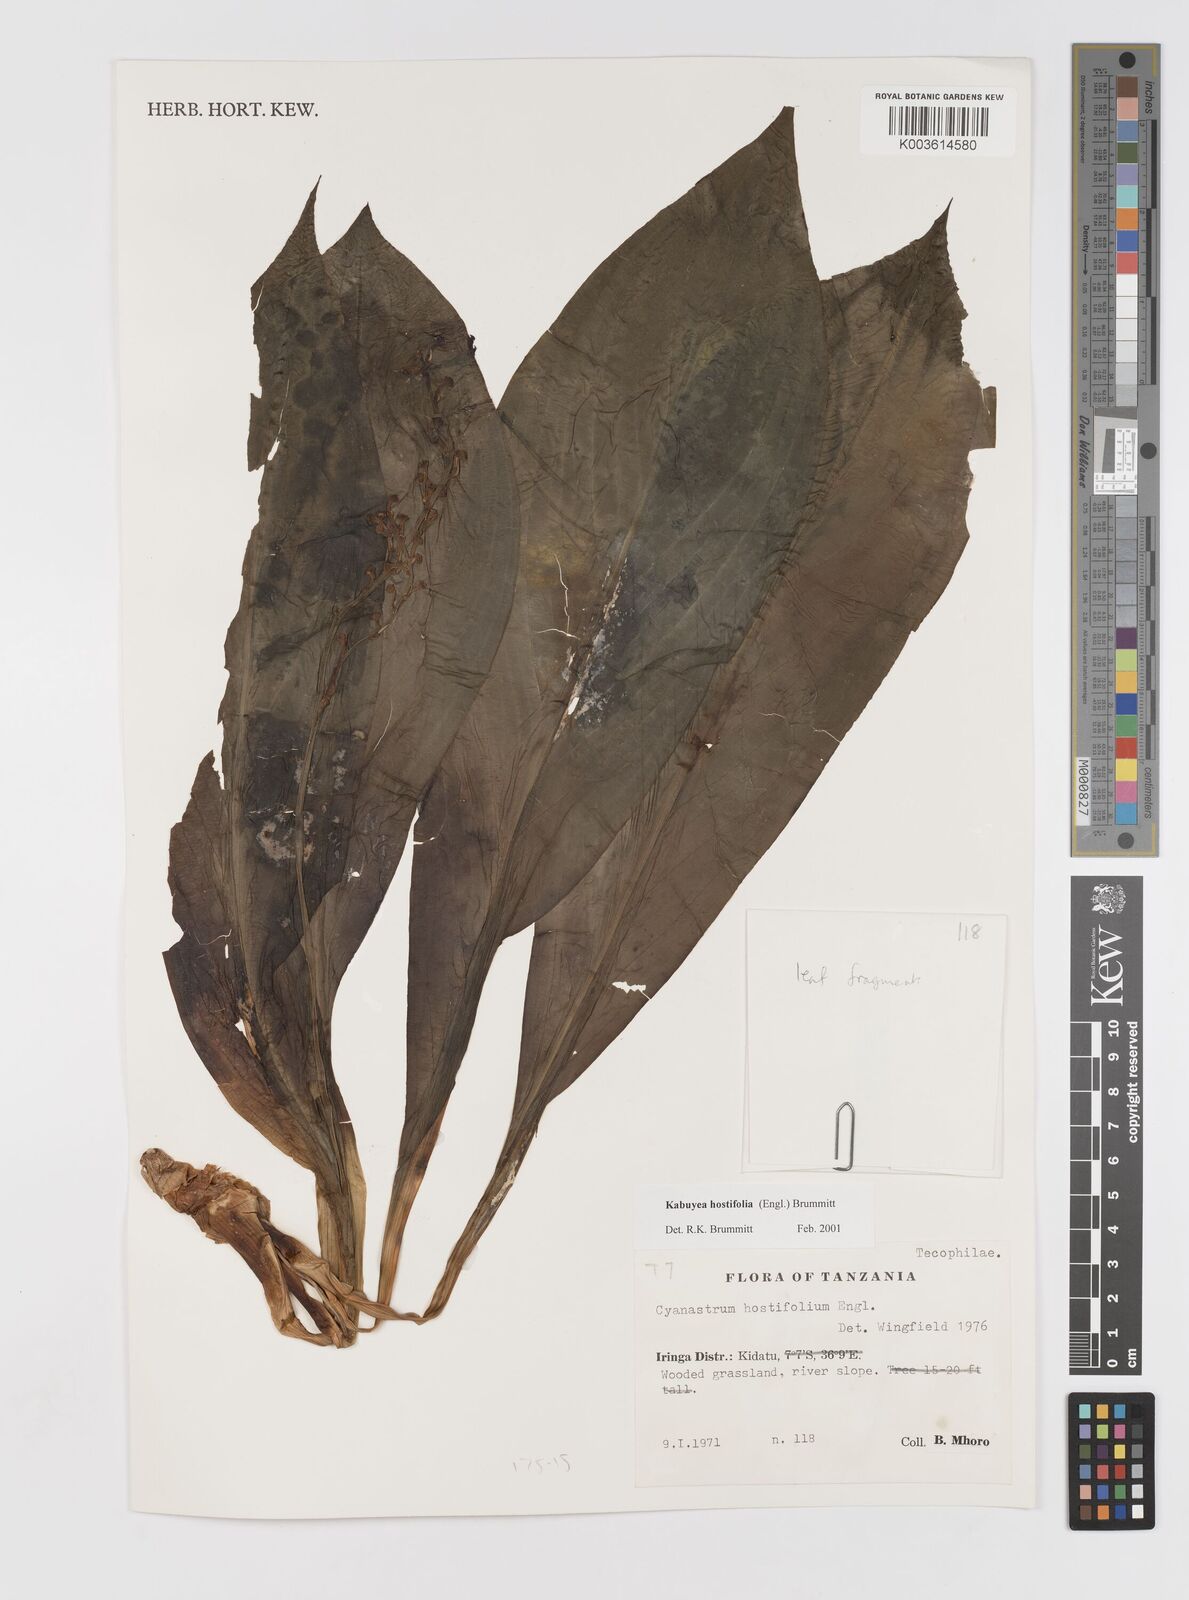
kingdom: Plantae
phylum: Tracheophyta
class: Liliopsida
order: Asparagales
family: Tecophilaeaceae
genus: Kabuyea
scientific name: Kabuyea hostifolia
